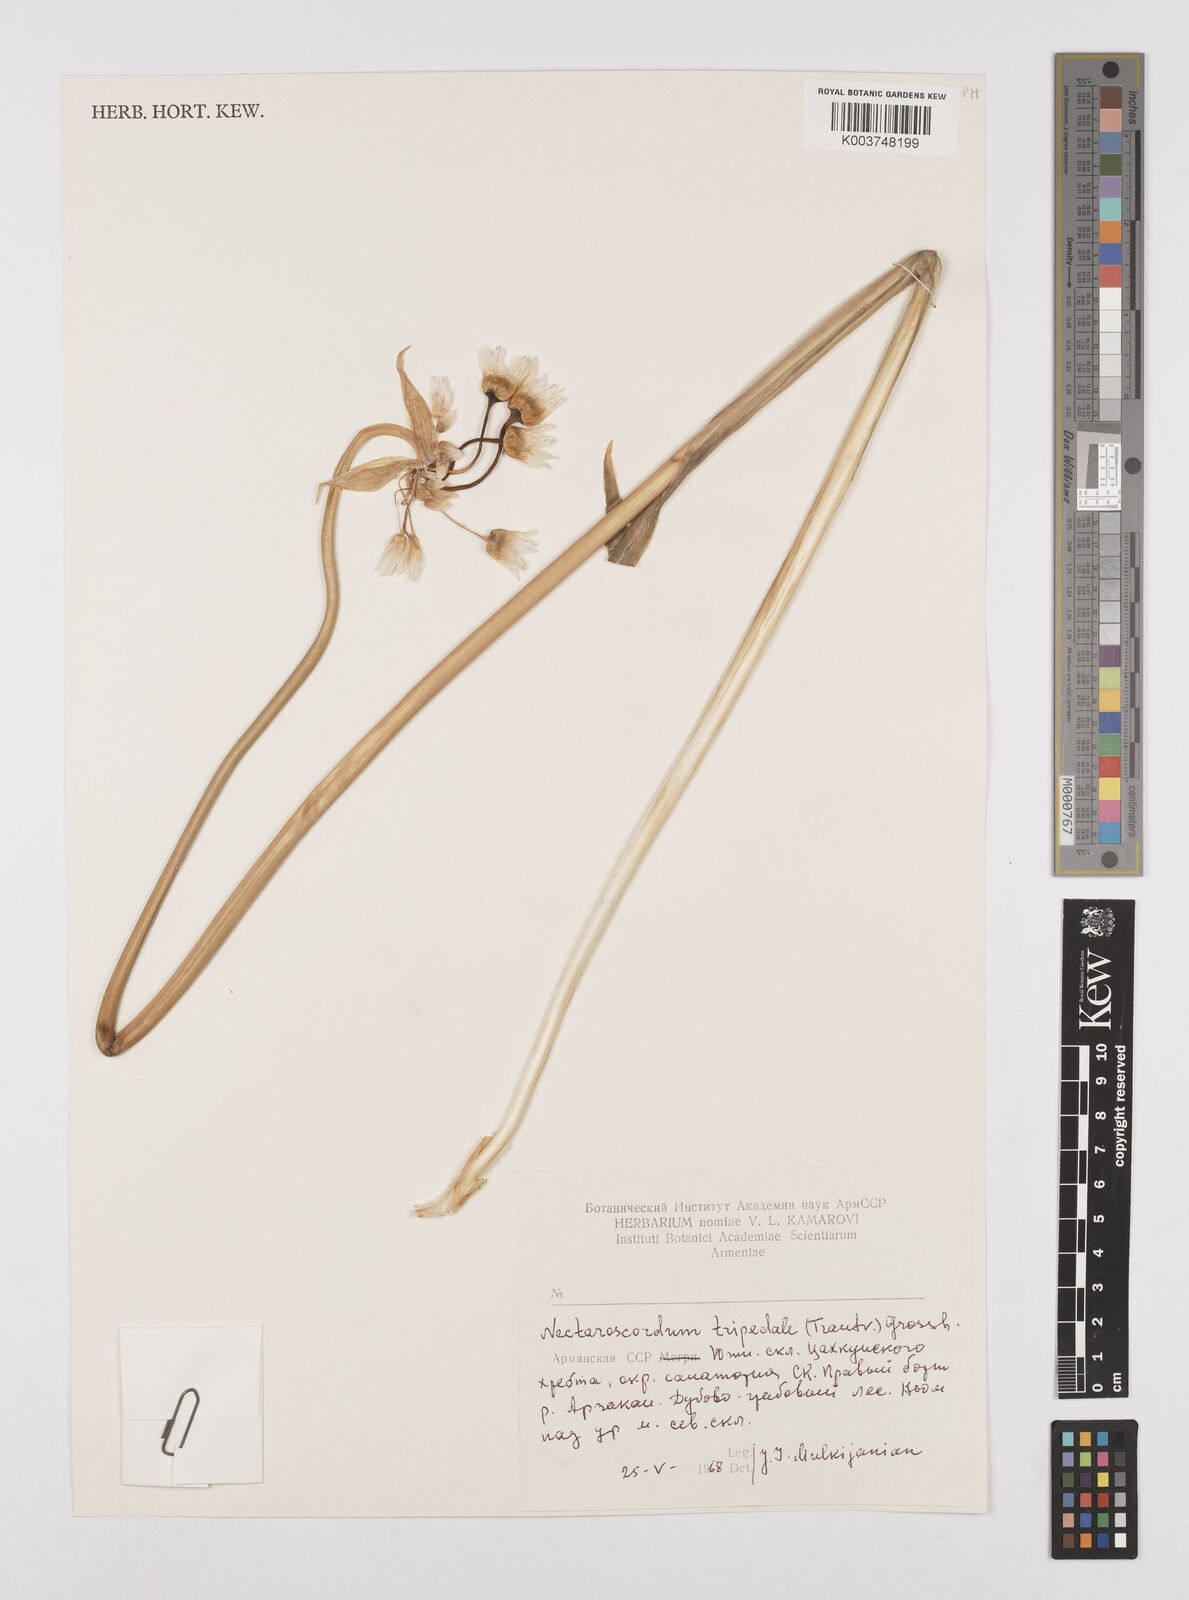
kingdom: Plantae
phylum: Tracheophyta
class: Liliopsida
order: Asparagales
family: Amaryllidaceae
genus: Allium
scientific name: Allium tripedale
